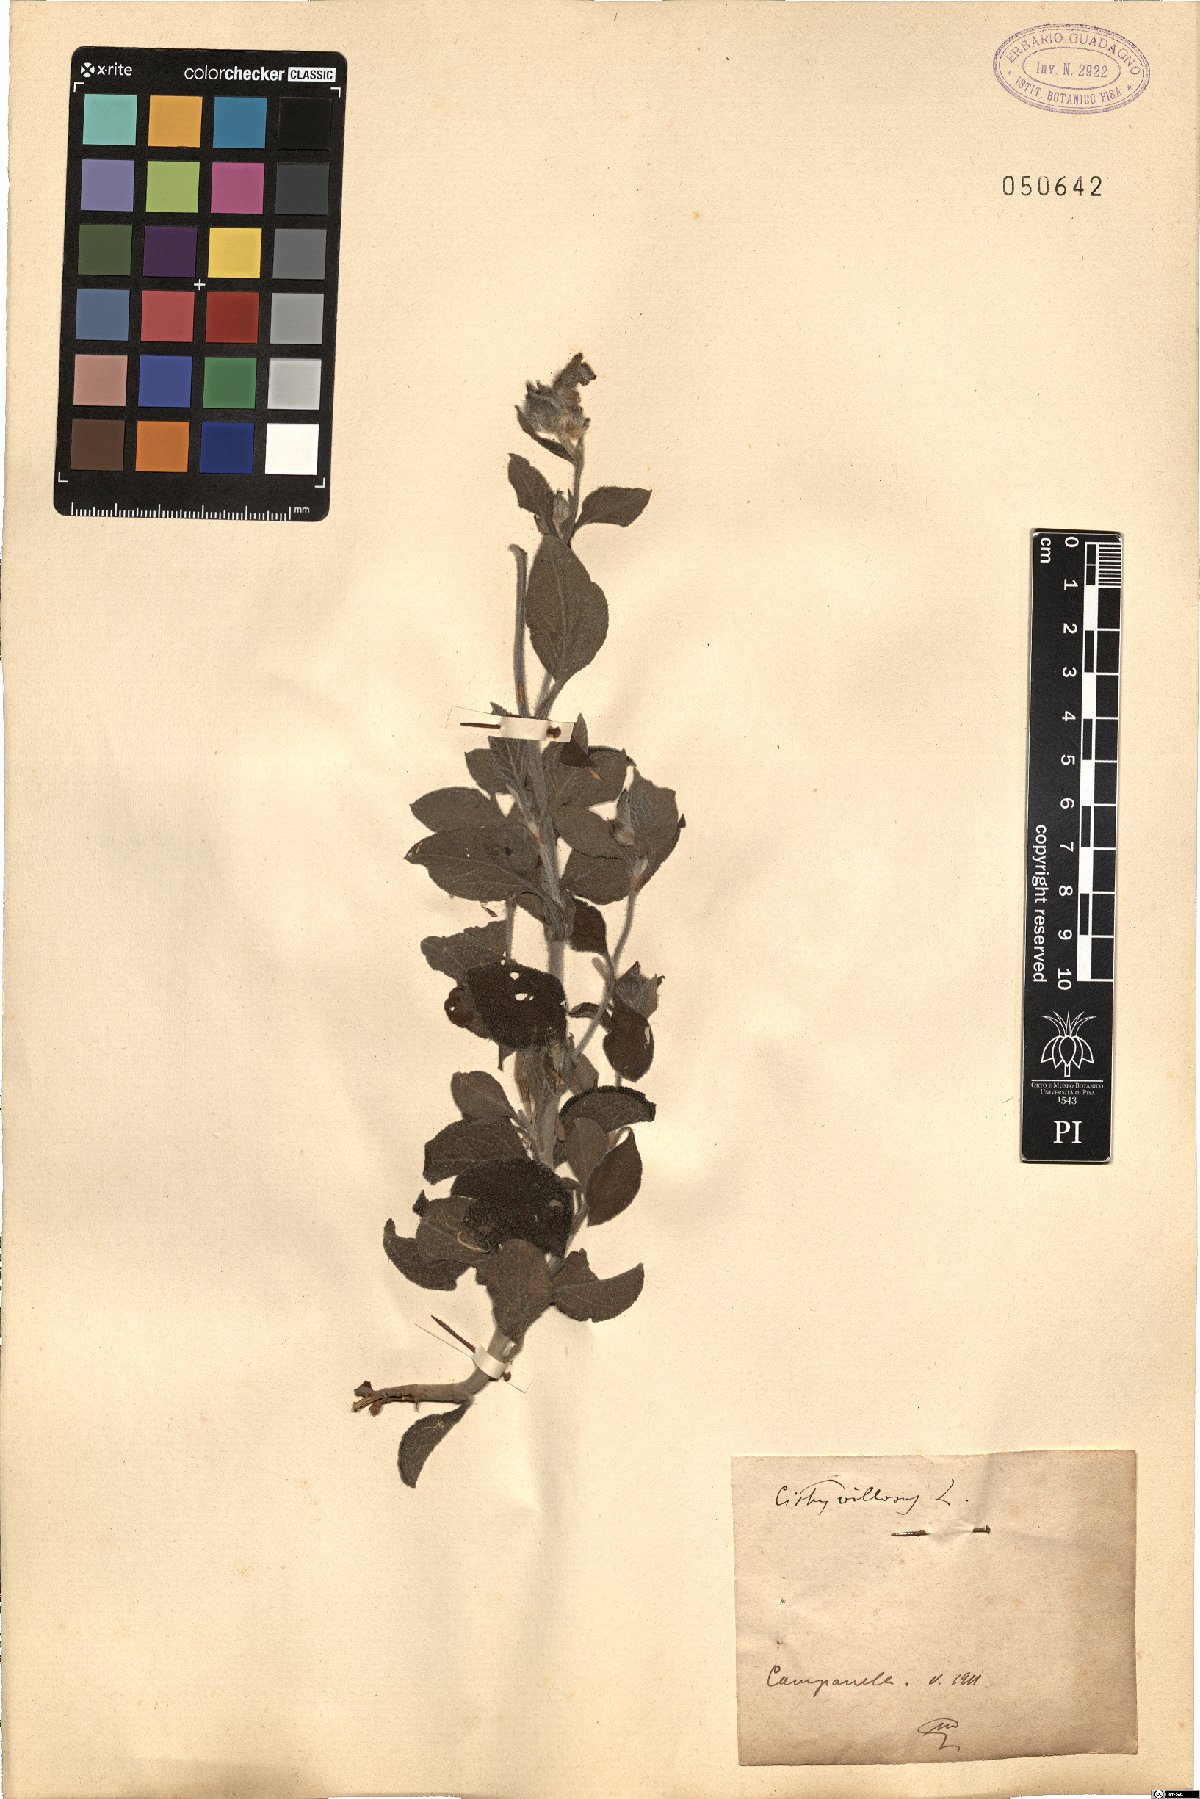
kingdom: Plantae
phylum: Tracheophyta
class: Magnoliopsida
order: Malvales
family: Cistaceae
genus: Cistus
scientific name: Cistus creticus
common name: Cretan rockrose
